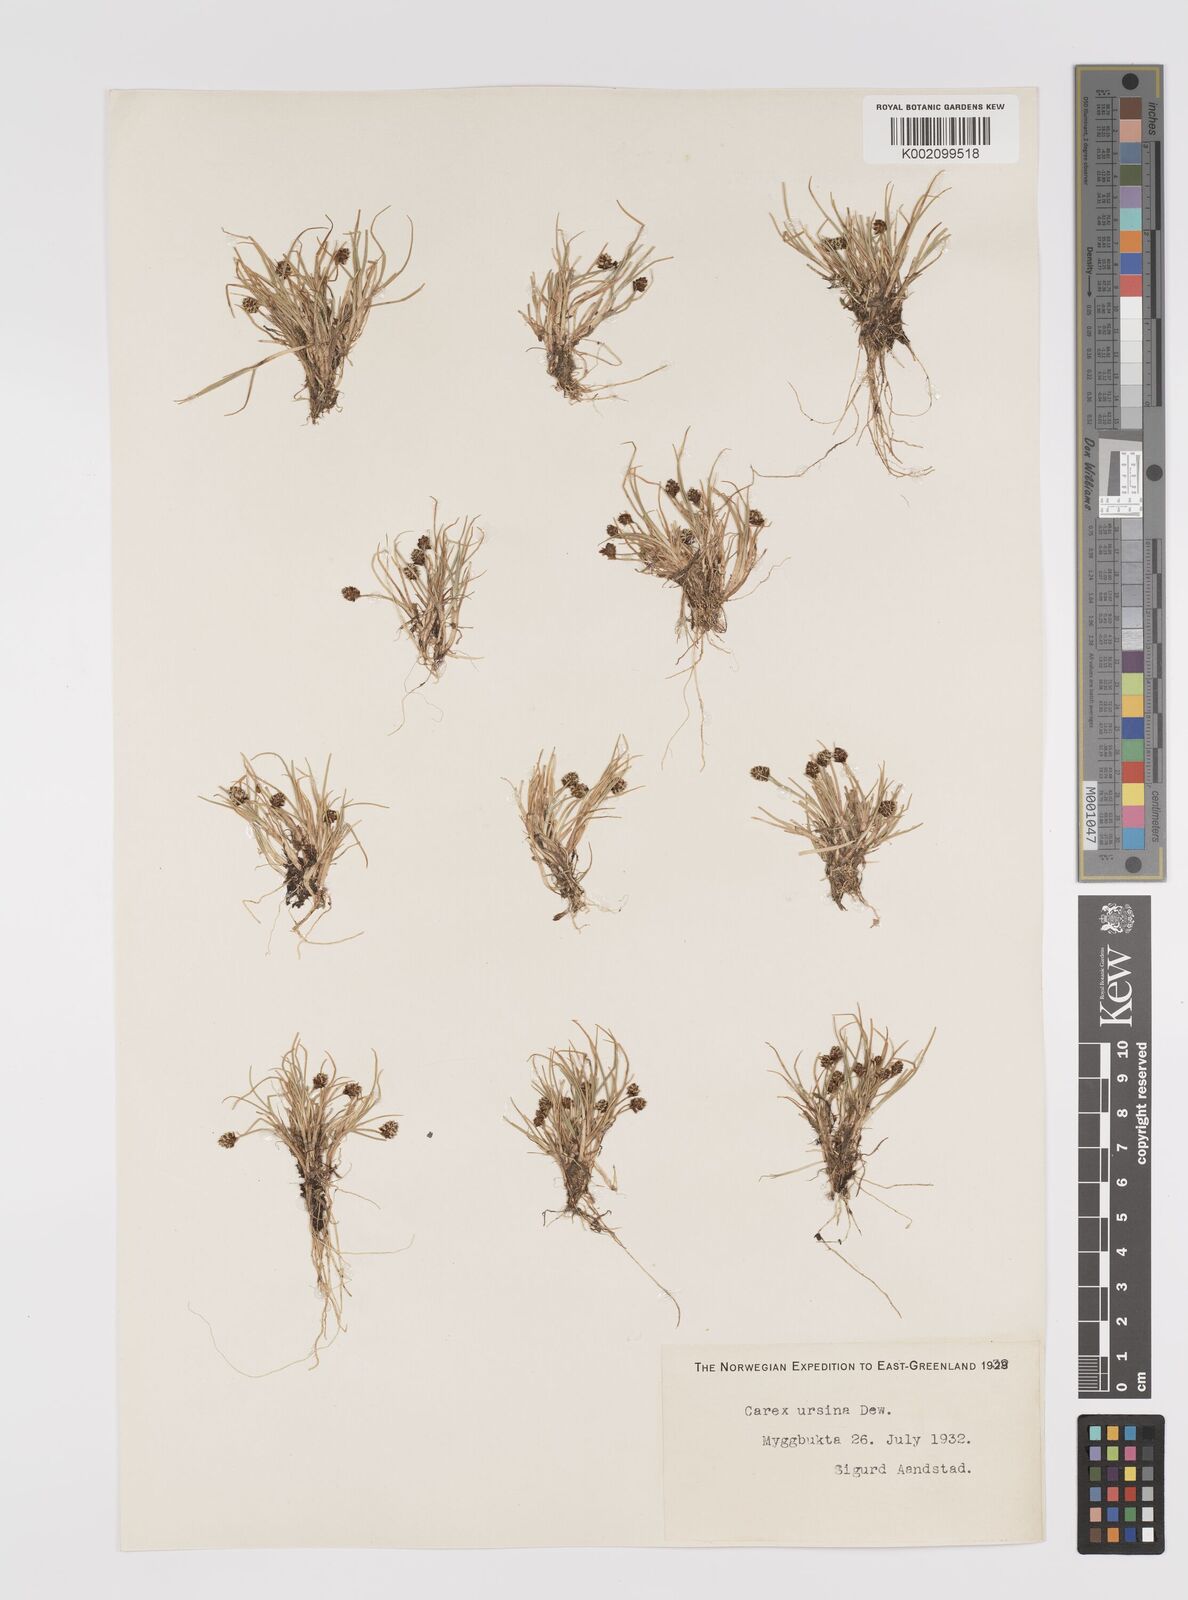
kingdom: Plantae
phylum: Tracheophyta
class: Liliopsida
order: Poales
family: Cyperaceae
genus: Carex
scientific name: Carex ursina
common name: Bear sedge
